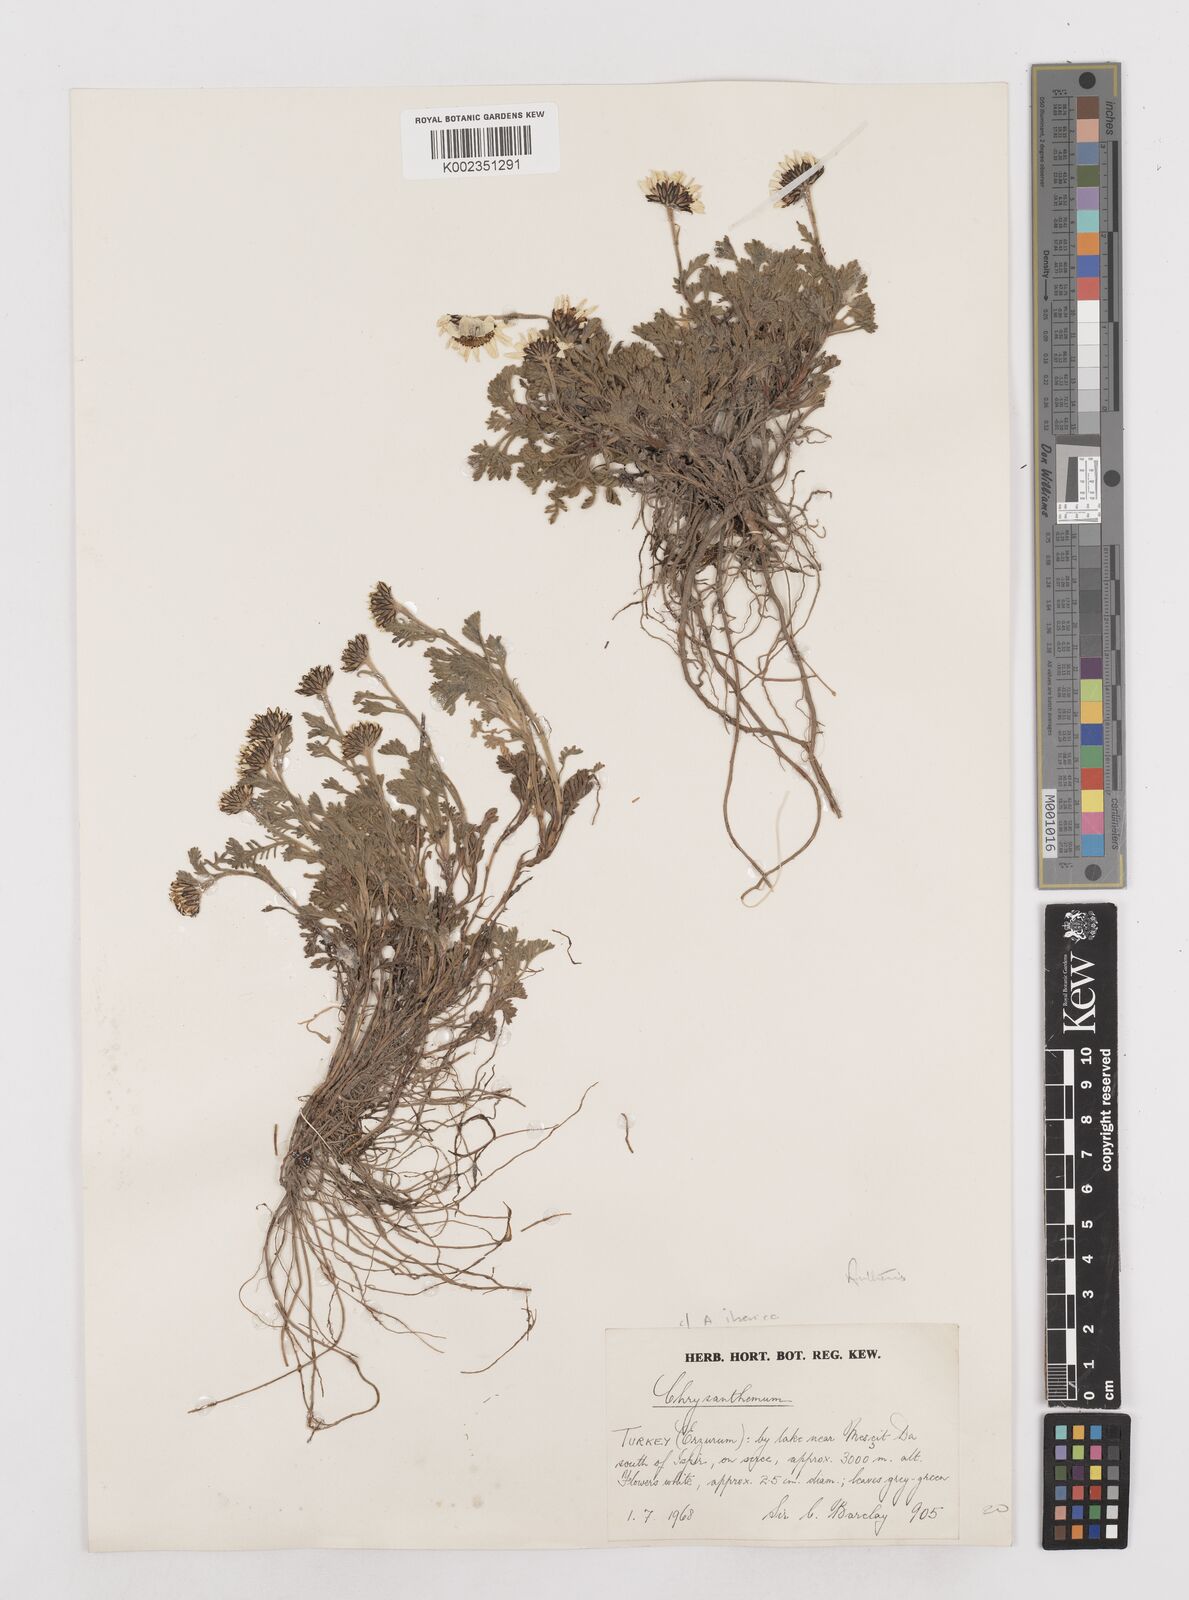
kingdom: Plantae
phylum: Tracheophyta
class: Magnoliopsida
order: Asterales
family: Asteraceae
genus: Anthemis
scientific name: Anthemis cretica
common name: Mountain dog-daisy
